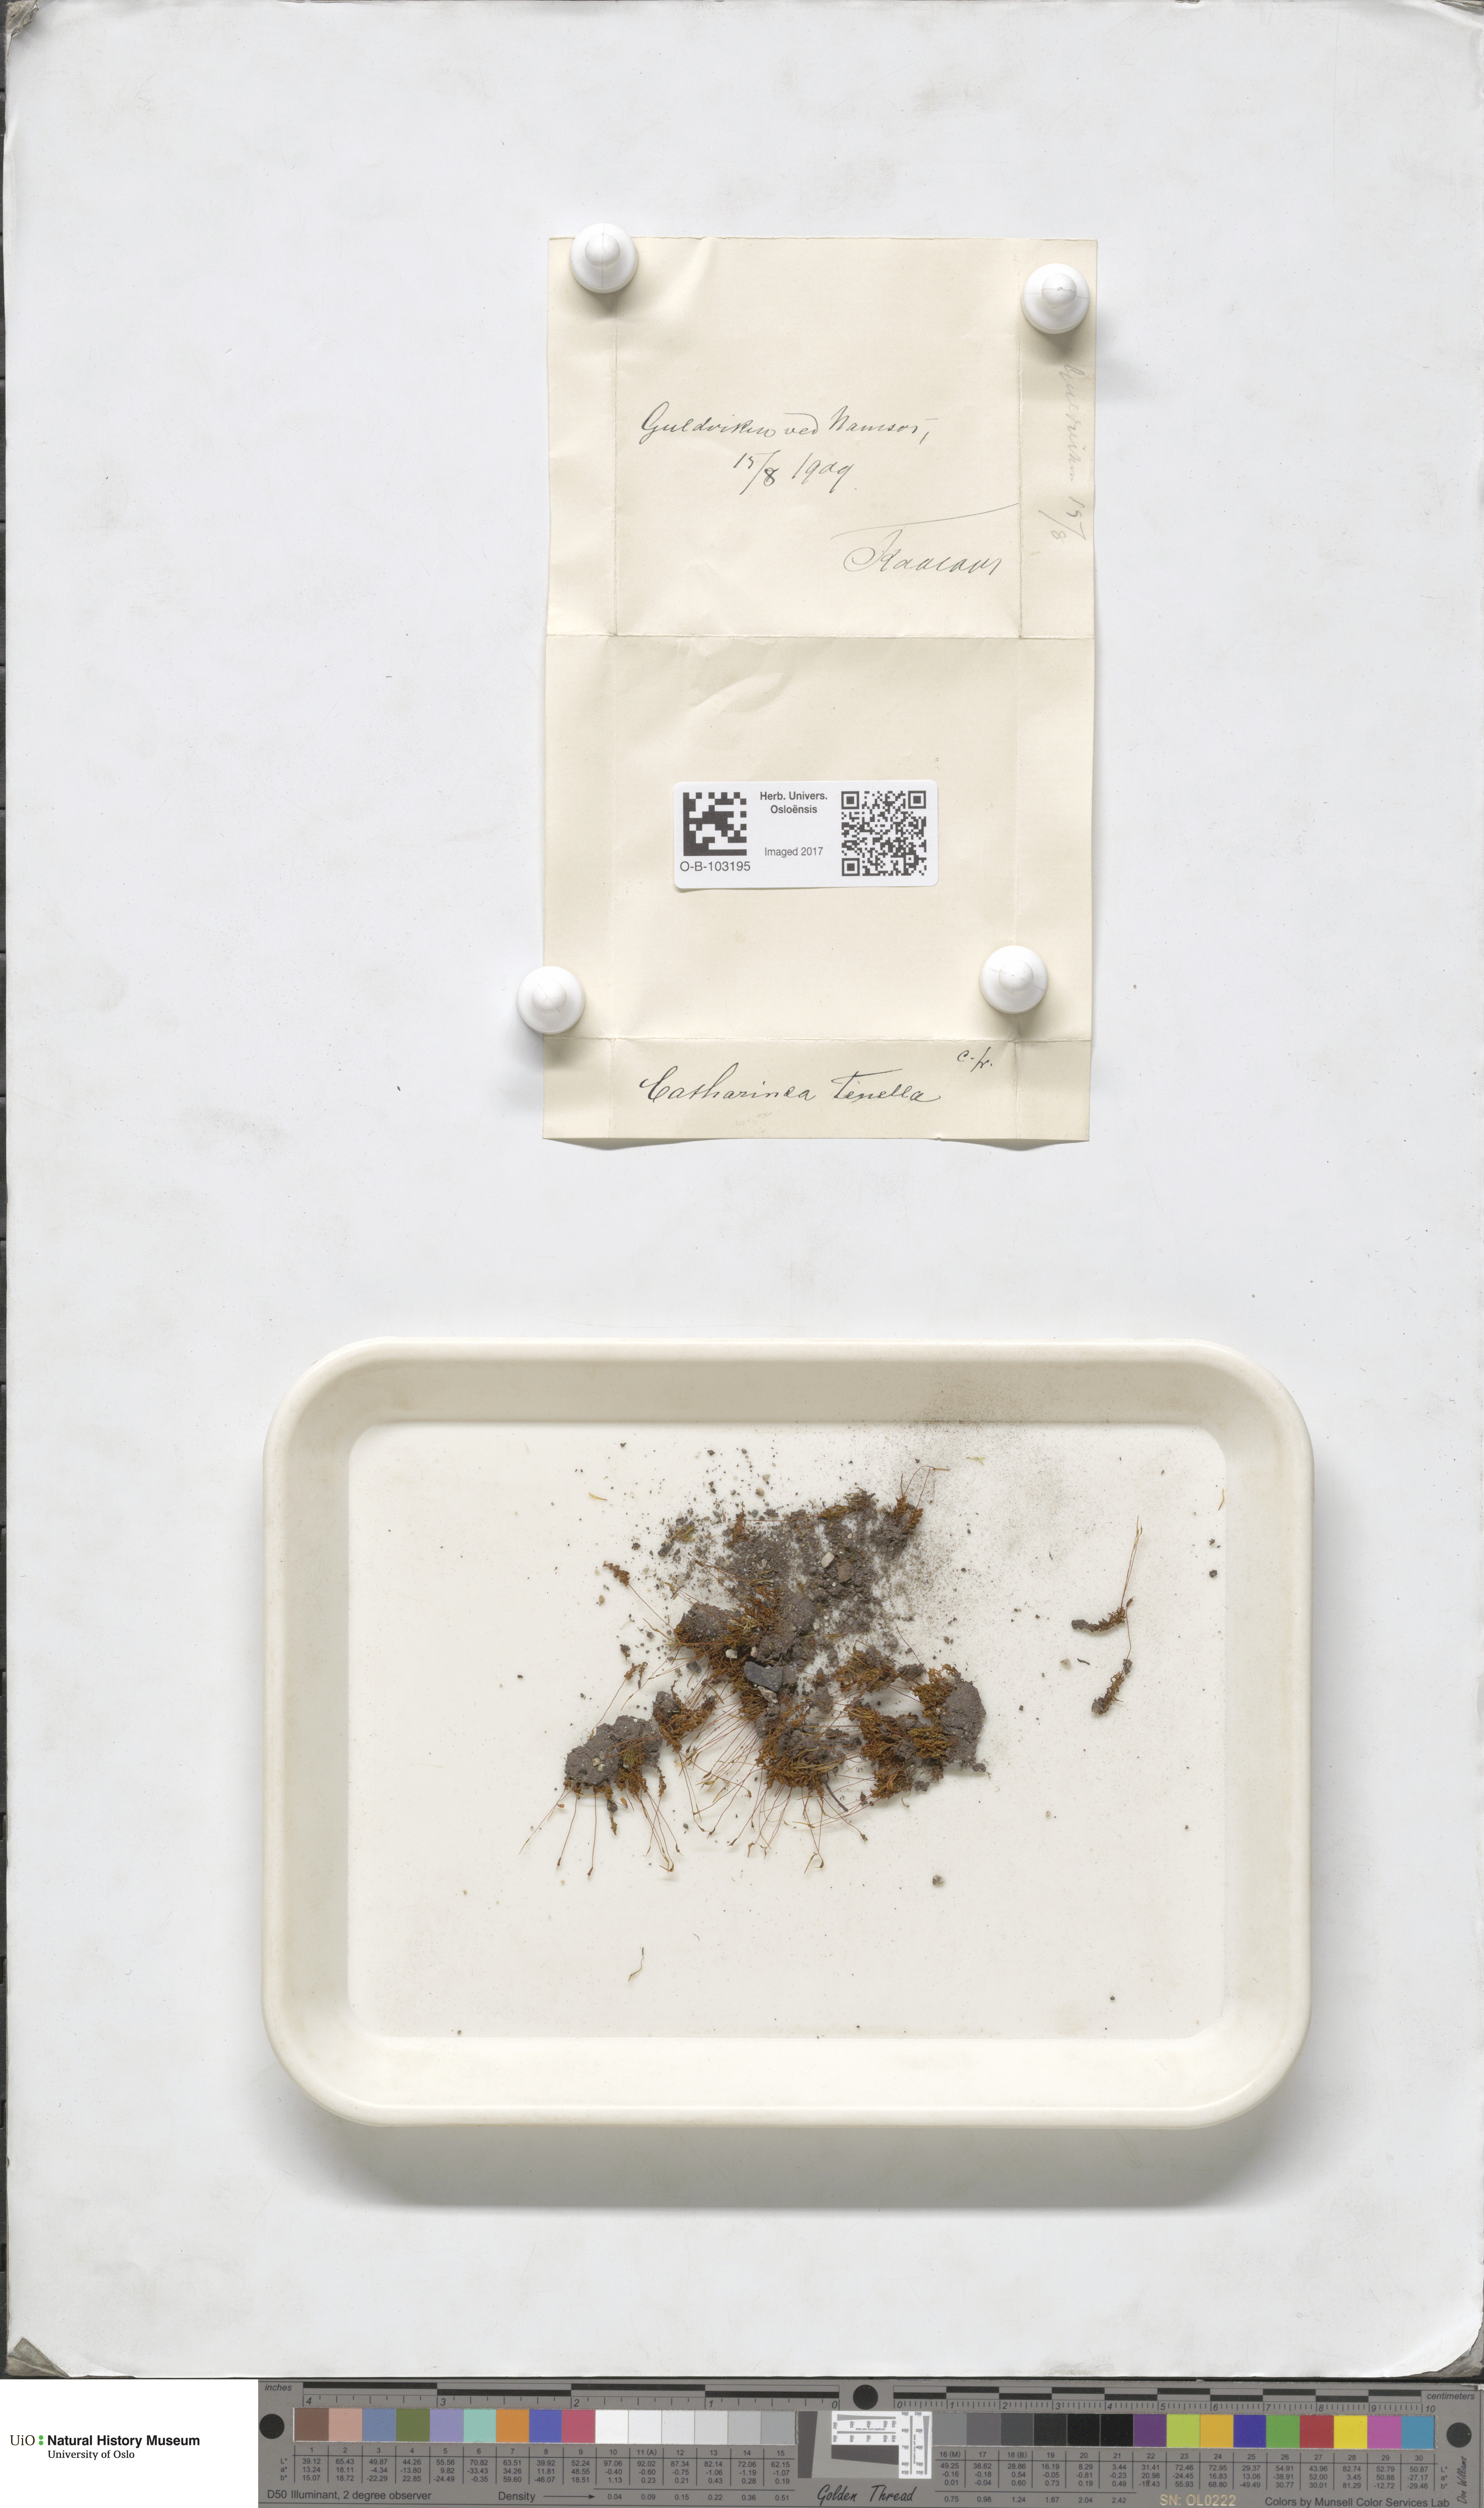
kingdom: Plantae
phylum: Bryophyta
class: Polytrichopsida
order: Polytrichales
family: Polytrichaceae
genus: Atrichum
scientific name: Atrichum tenellum
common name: Slender smoothcap moss
